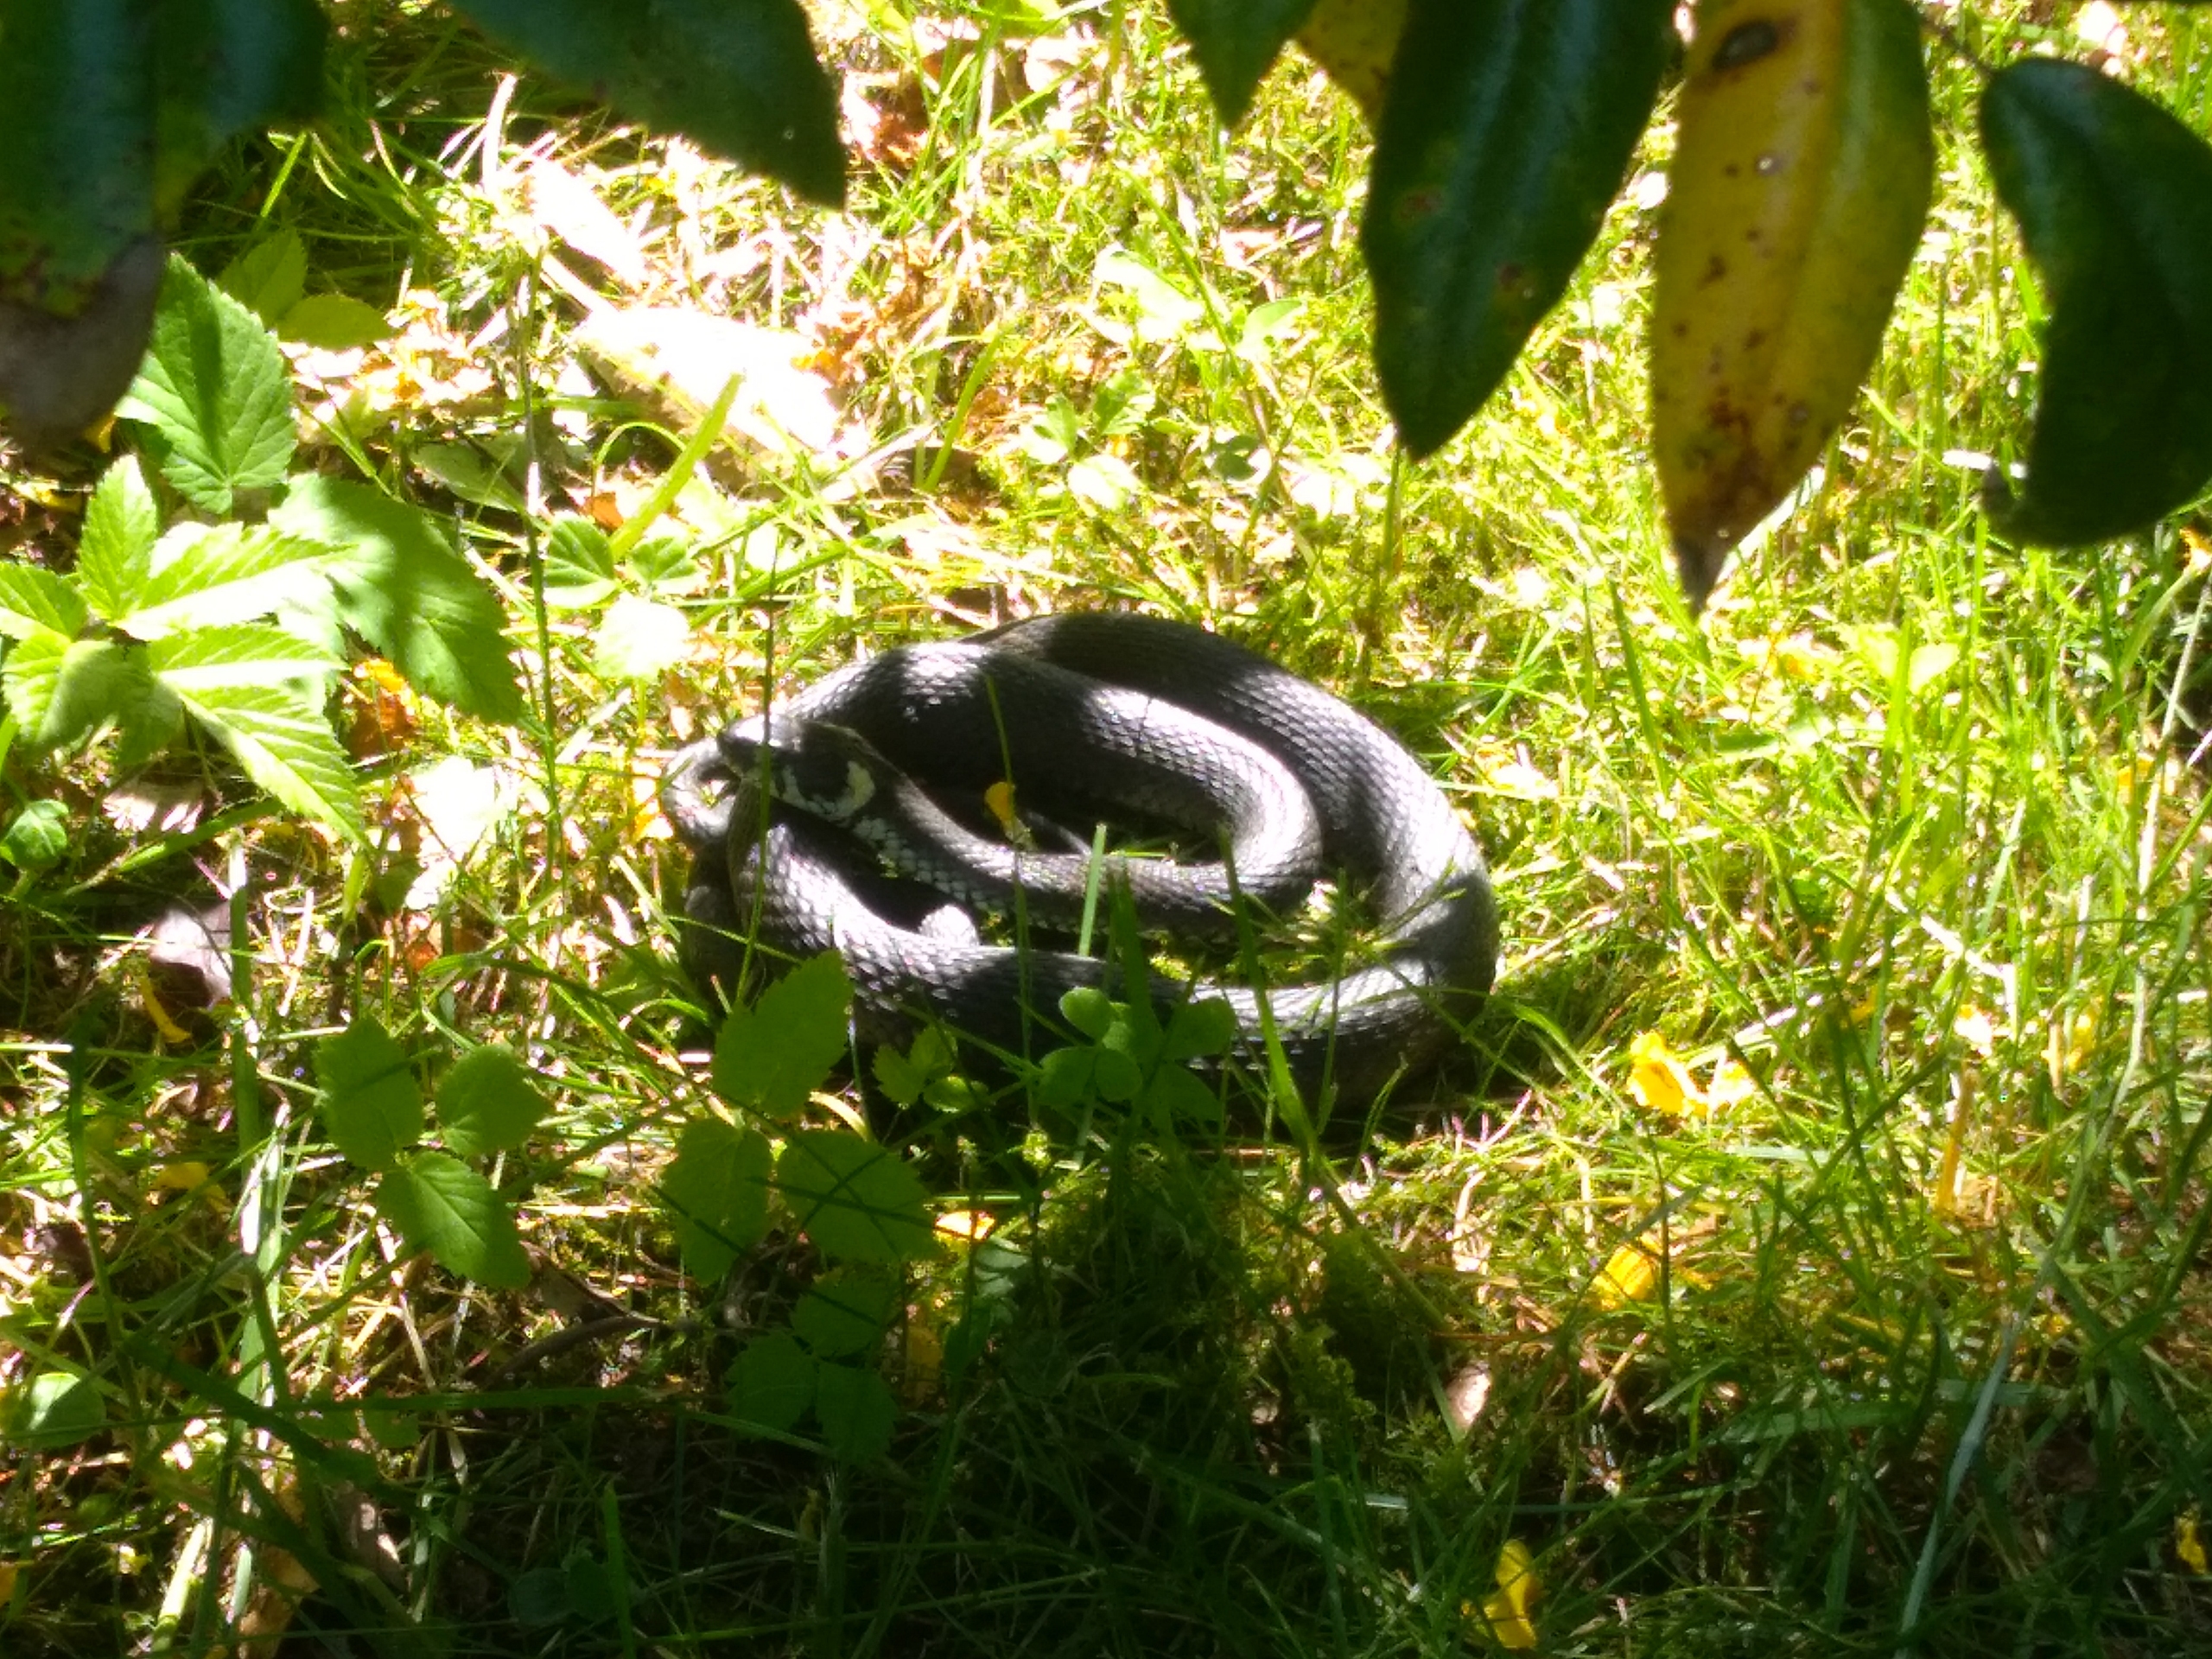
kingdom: Animalia
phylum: Chordata
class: Squamata
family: Colubridae
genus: Natrix
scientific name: Natrix natrix
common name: Snog
